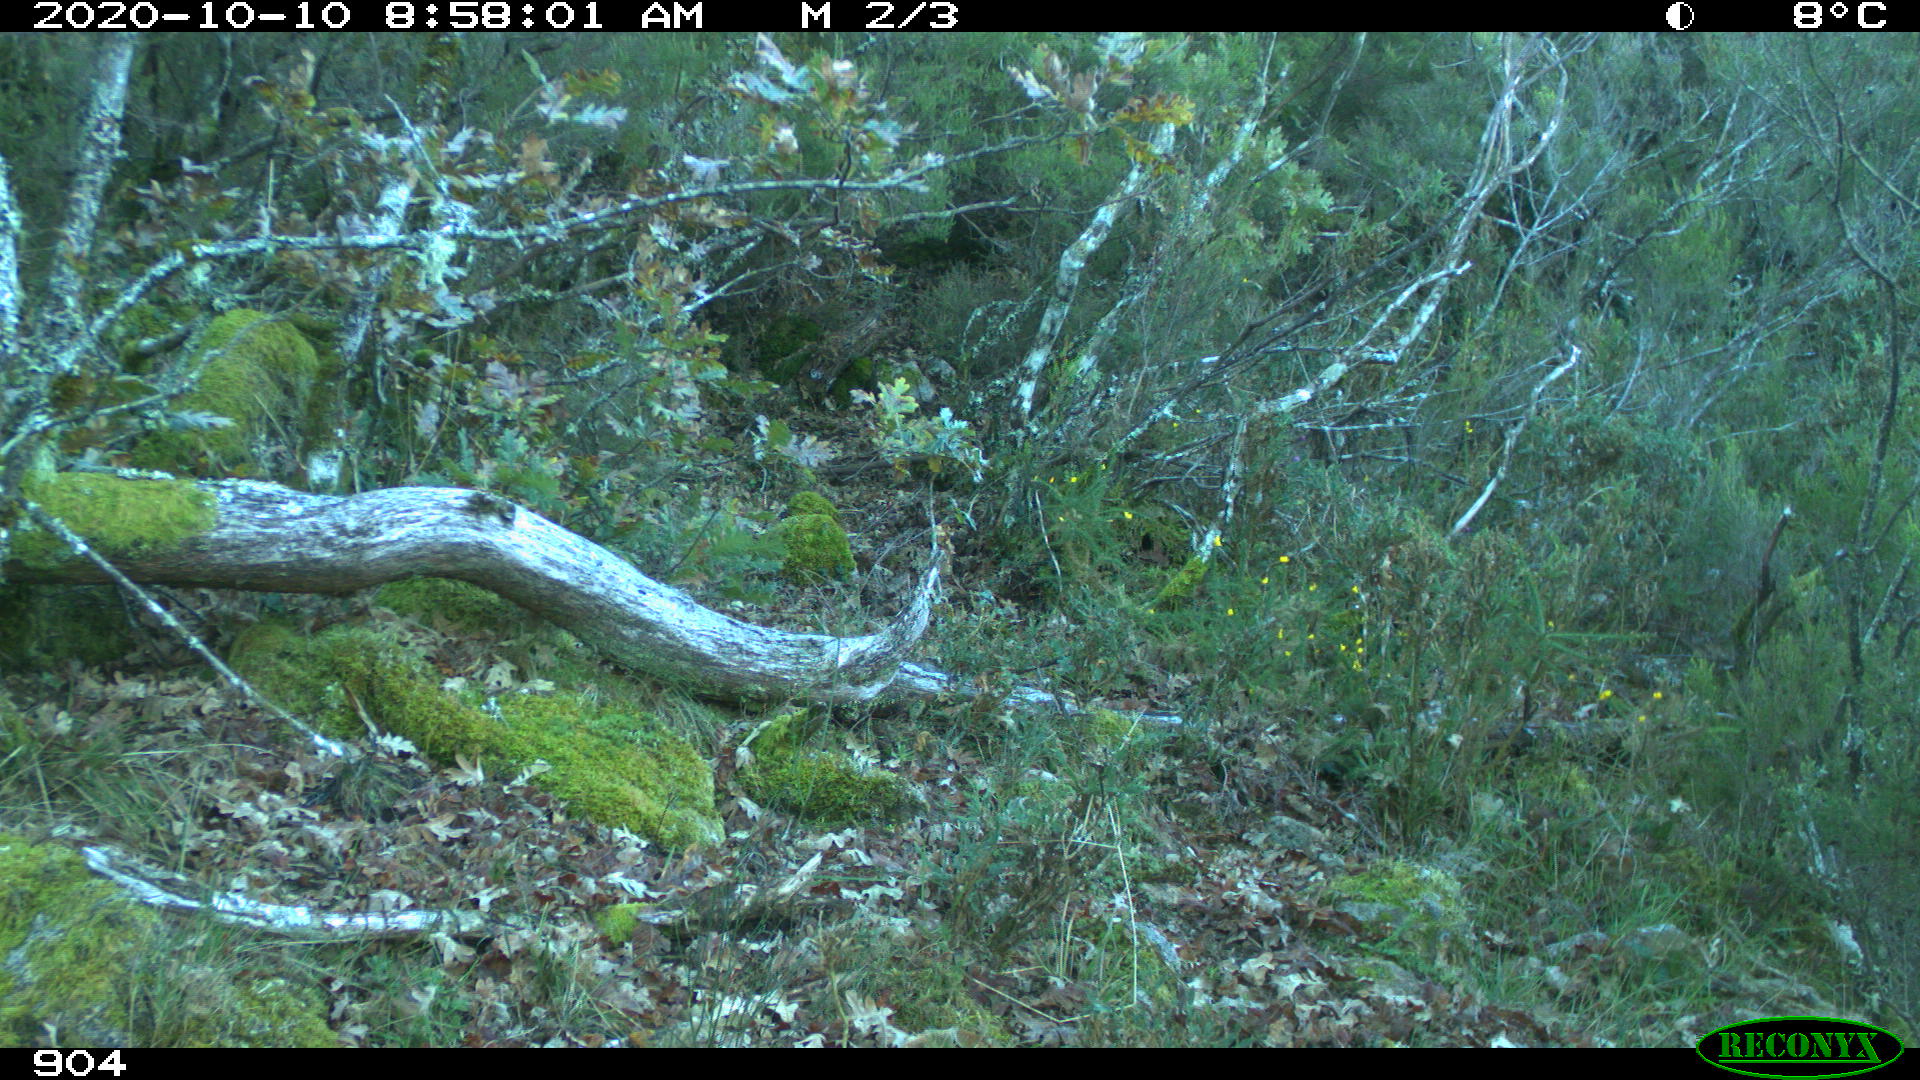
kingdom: Animalia
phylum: Chordata
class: Mammalia
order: Artiodactyla
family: Bovidae
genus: Bos
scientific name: Bos taurus
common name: Domesticated cattle
